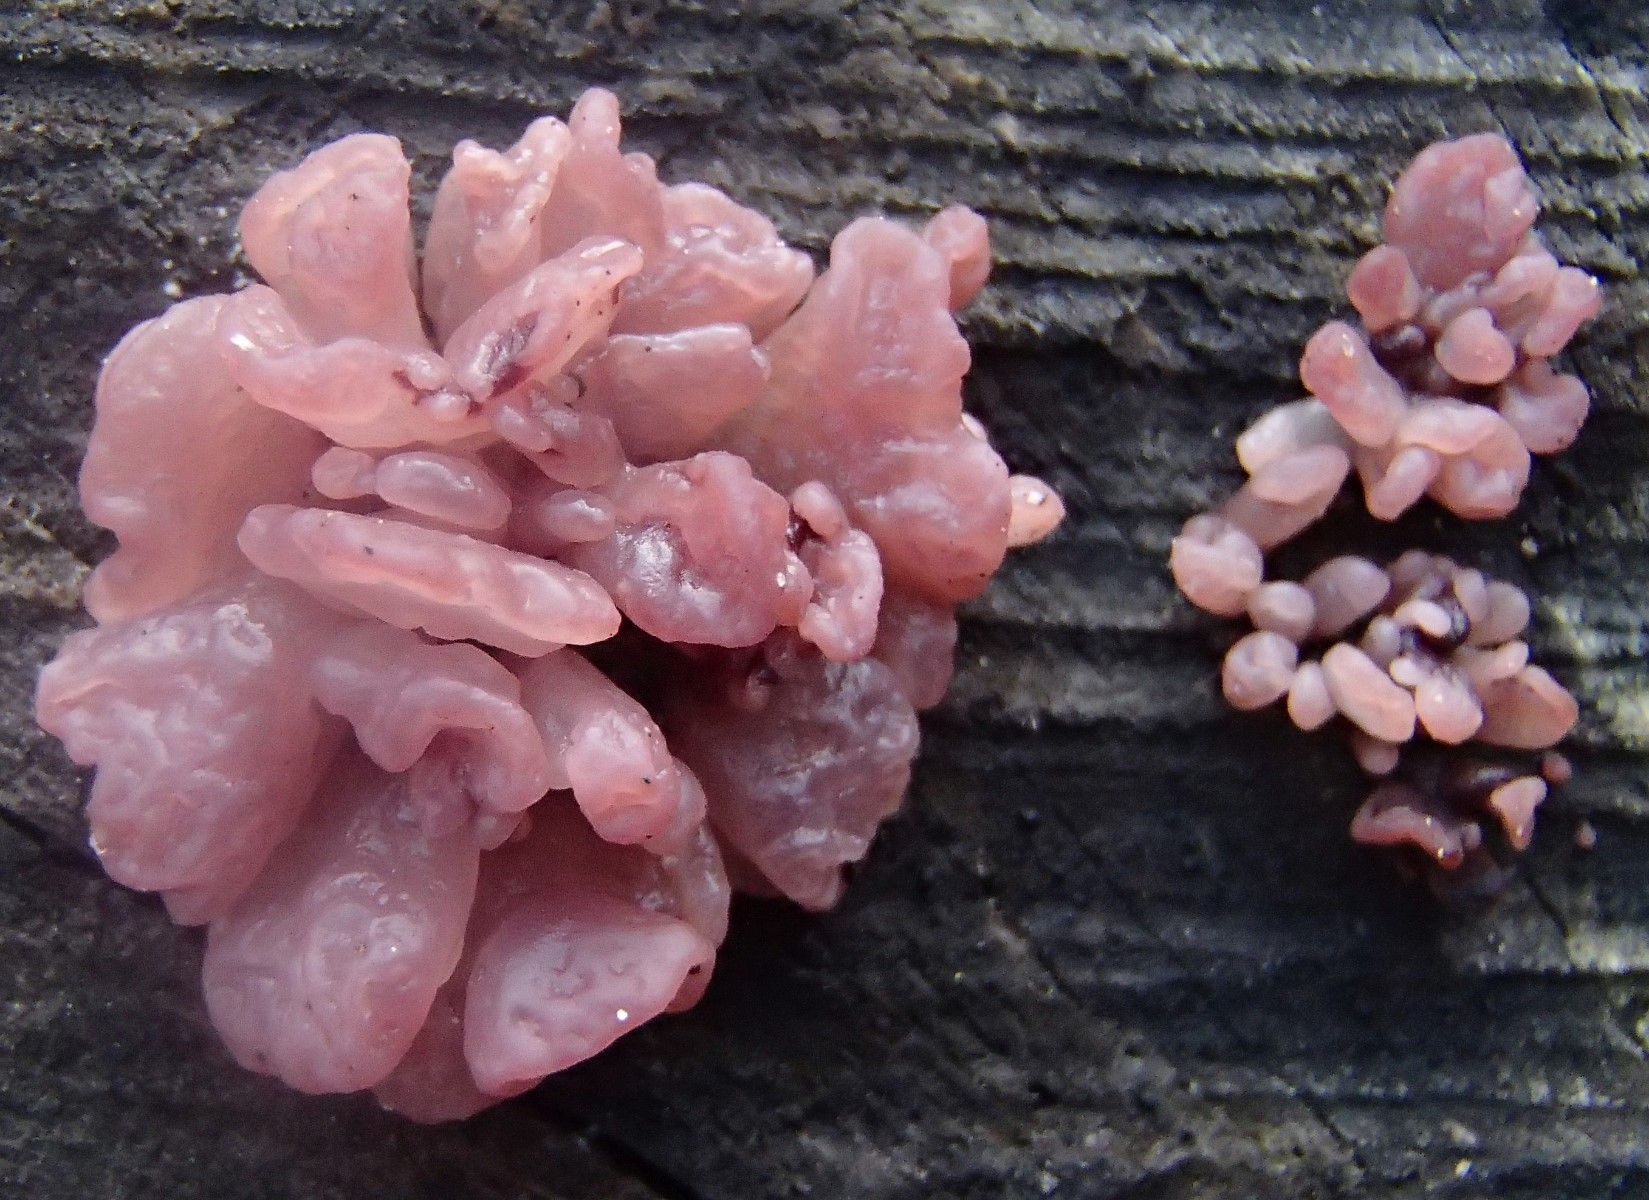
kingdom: Fungi
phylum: Ascomycota
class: Leotiomycetes
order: Helotiales
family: Gelatinodiscaceae
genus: Ascocoryne
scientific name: Ascocoryne sarcoides
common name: rødlilla sejskive
